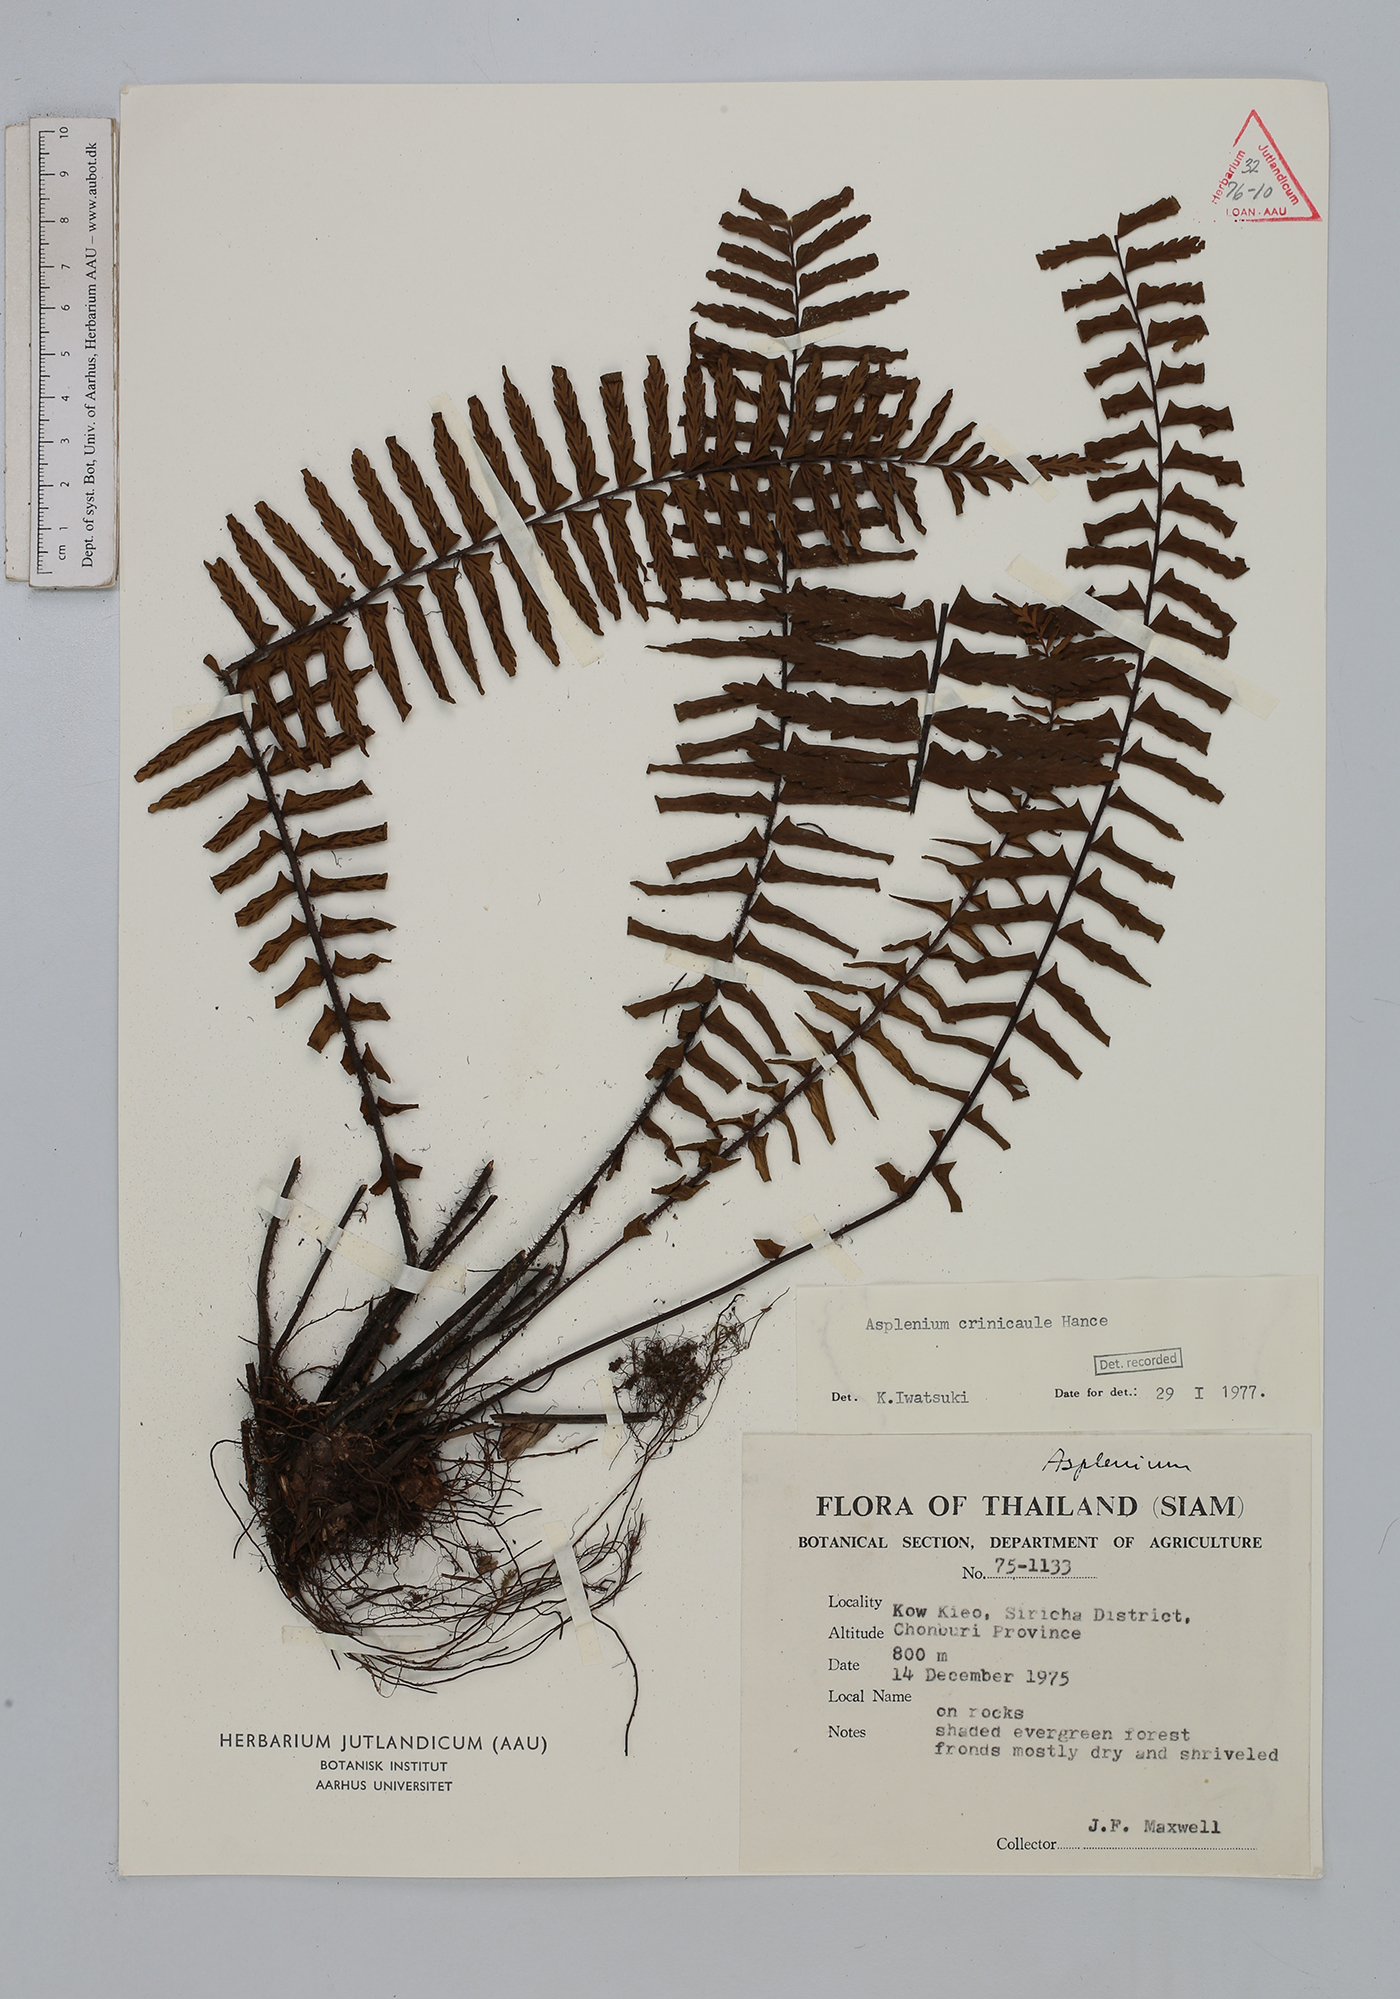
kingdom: Plantae
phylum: Tracheophyta
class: Polypodiopsida
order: Polypodiales
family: Aspleniaceae
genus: Asplenium
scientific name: Asplenium crinicaule
